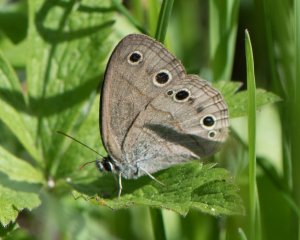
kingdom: Animalia
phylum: Arthropoda
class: Insecta
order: Lepidoptera
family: Nymphalidae
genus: Euptychia
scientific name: Euptychia cymela
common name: Little Wood Satyr
